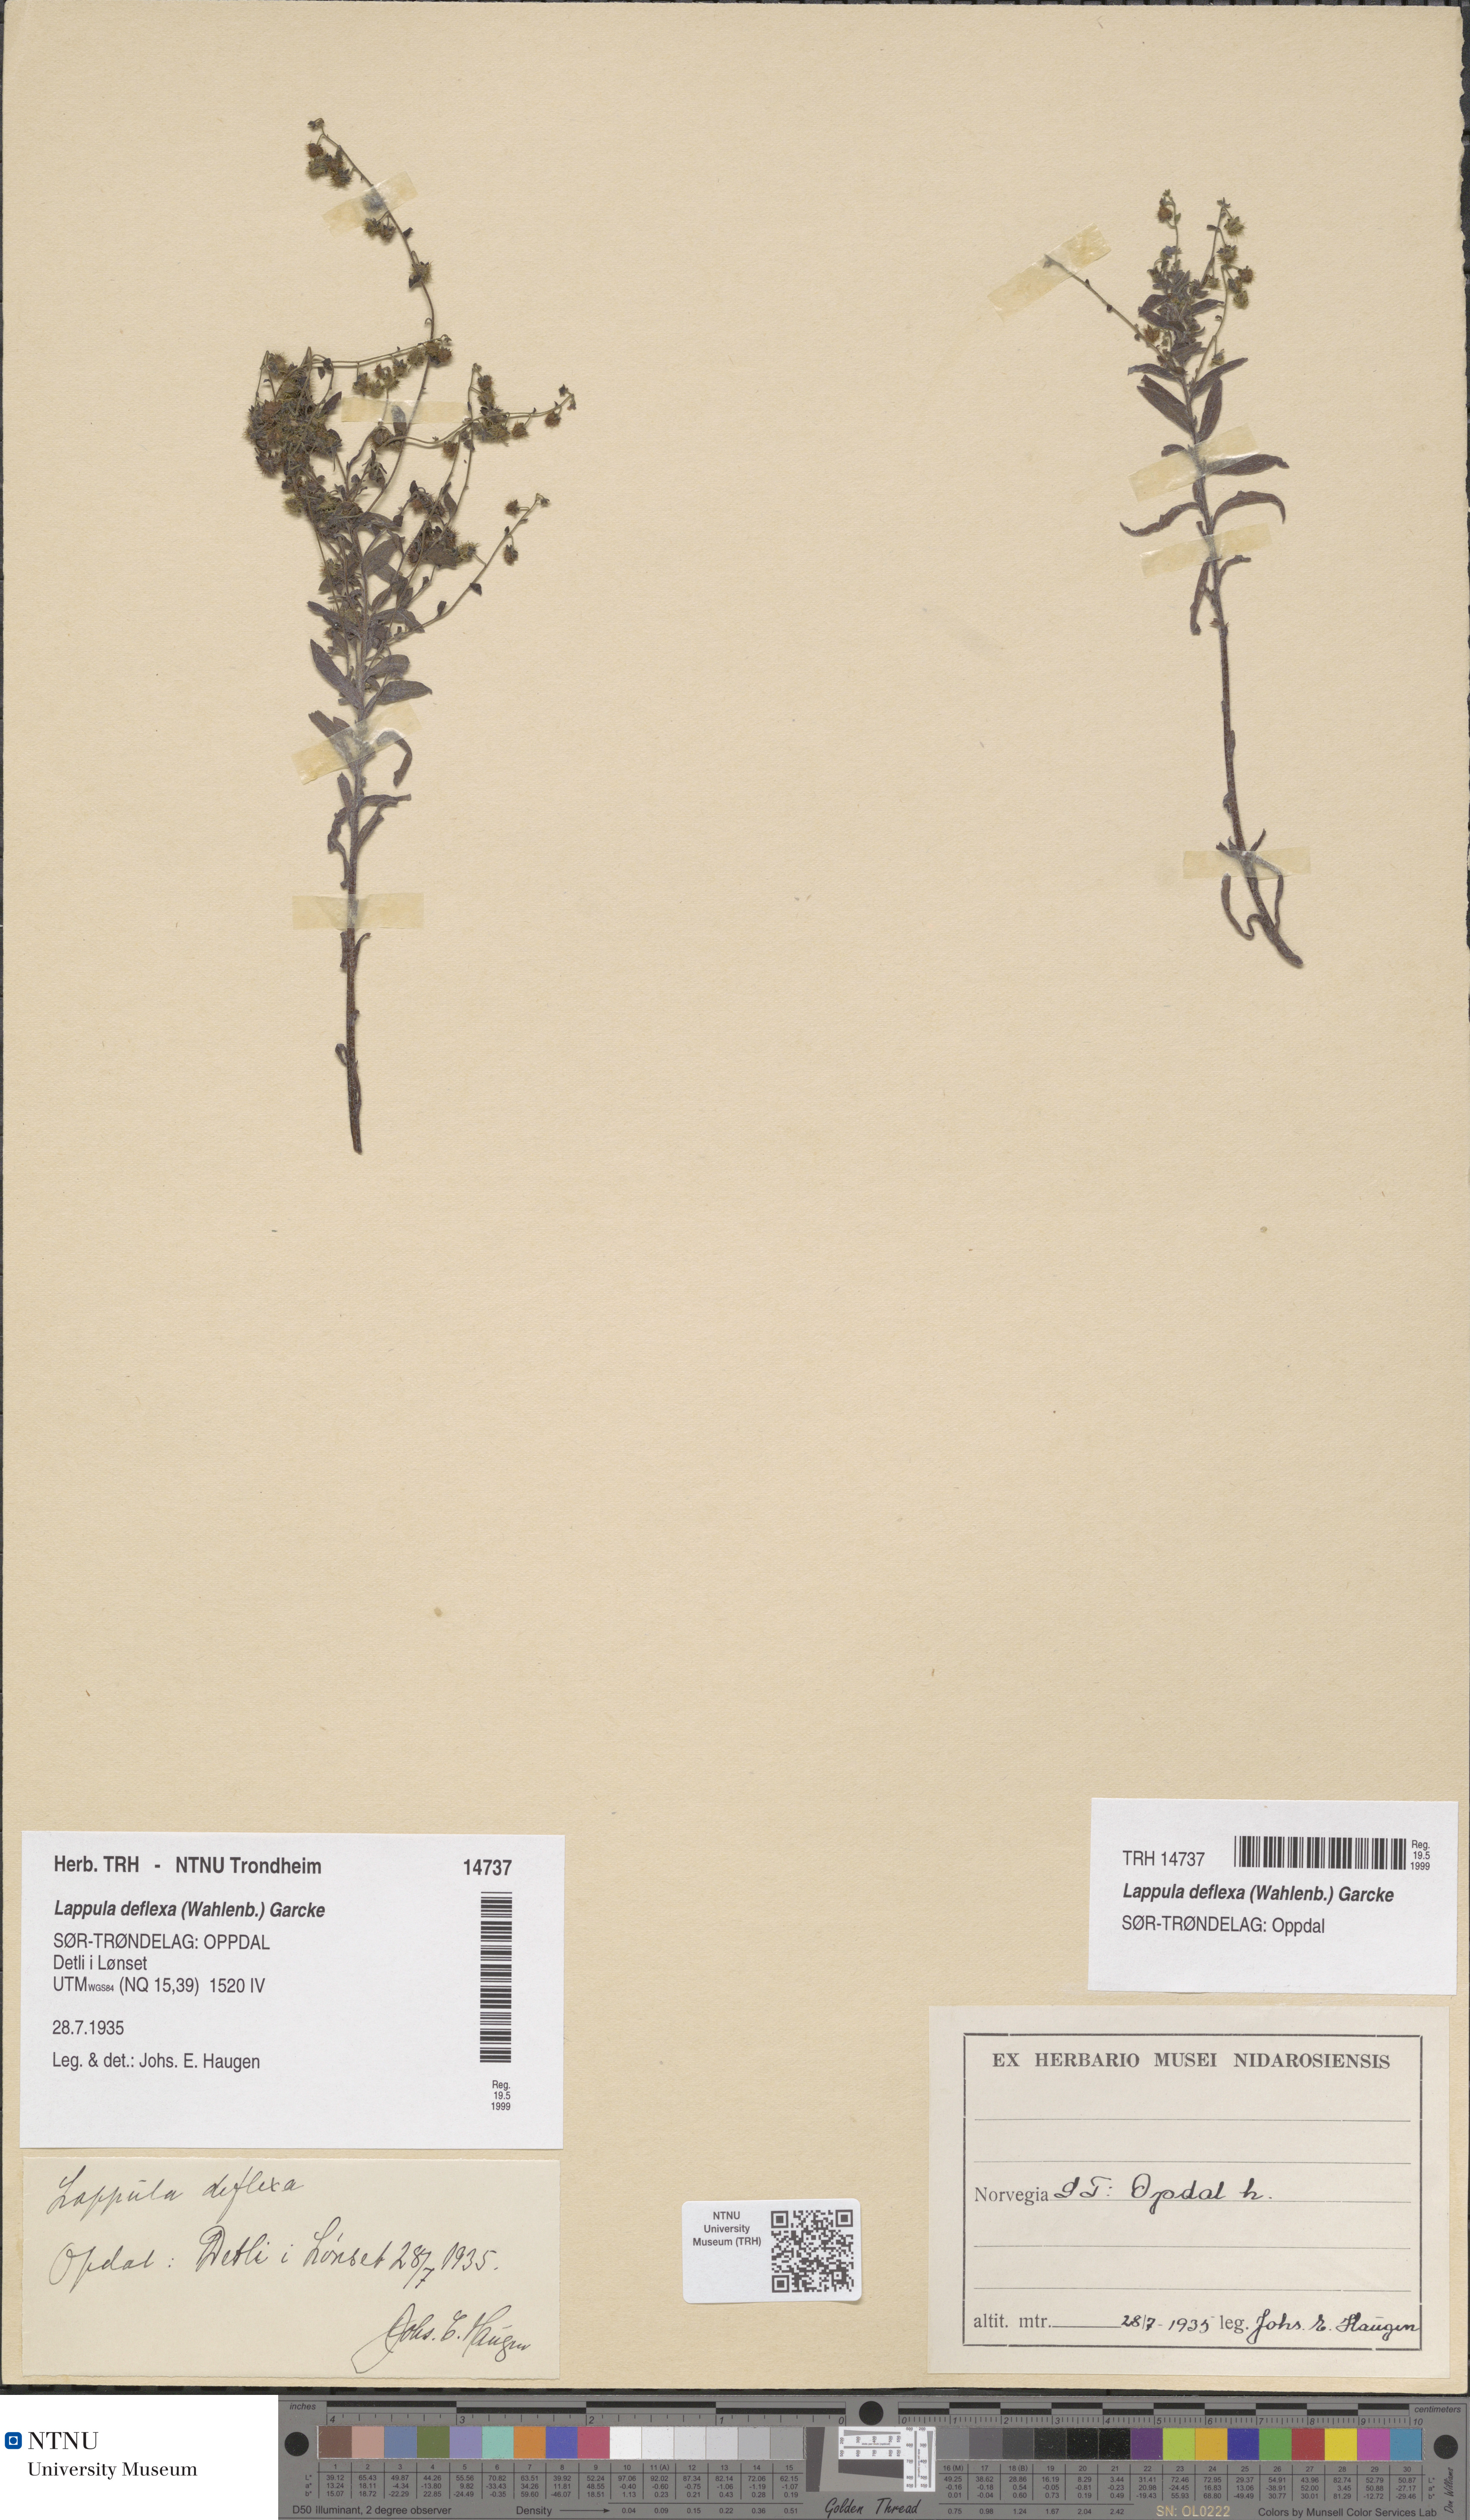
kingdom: Plantae
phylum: Tracheophyta
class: Magnoliopsida
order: Boraginales
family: Boraginaceae
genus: Hackelia
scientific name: Hackelia deflexa
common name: Nodding stickseed
